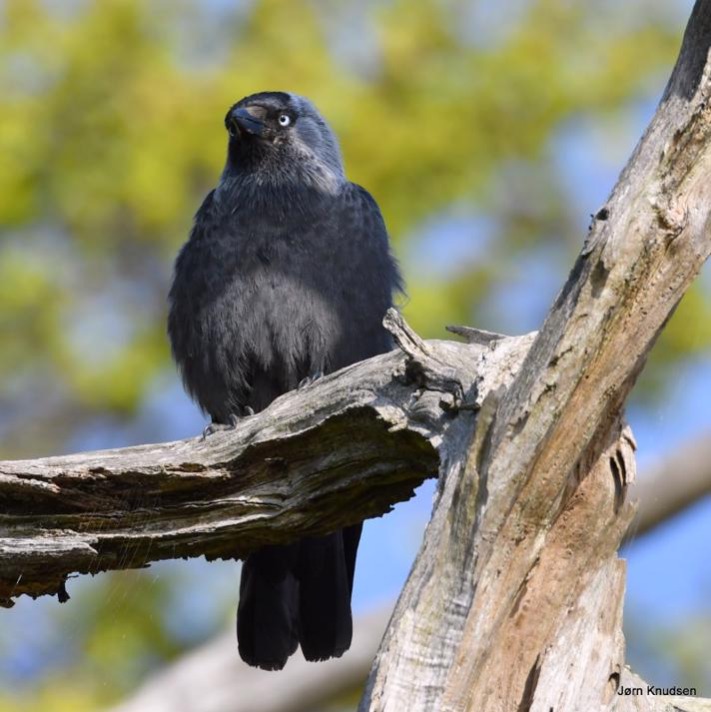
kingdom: Animalia
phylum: Chordata
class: Aves
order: Passeriformes
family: Corvidae
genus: Coloeus
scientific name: Coloeus monedula
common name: Allike
